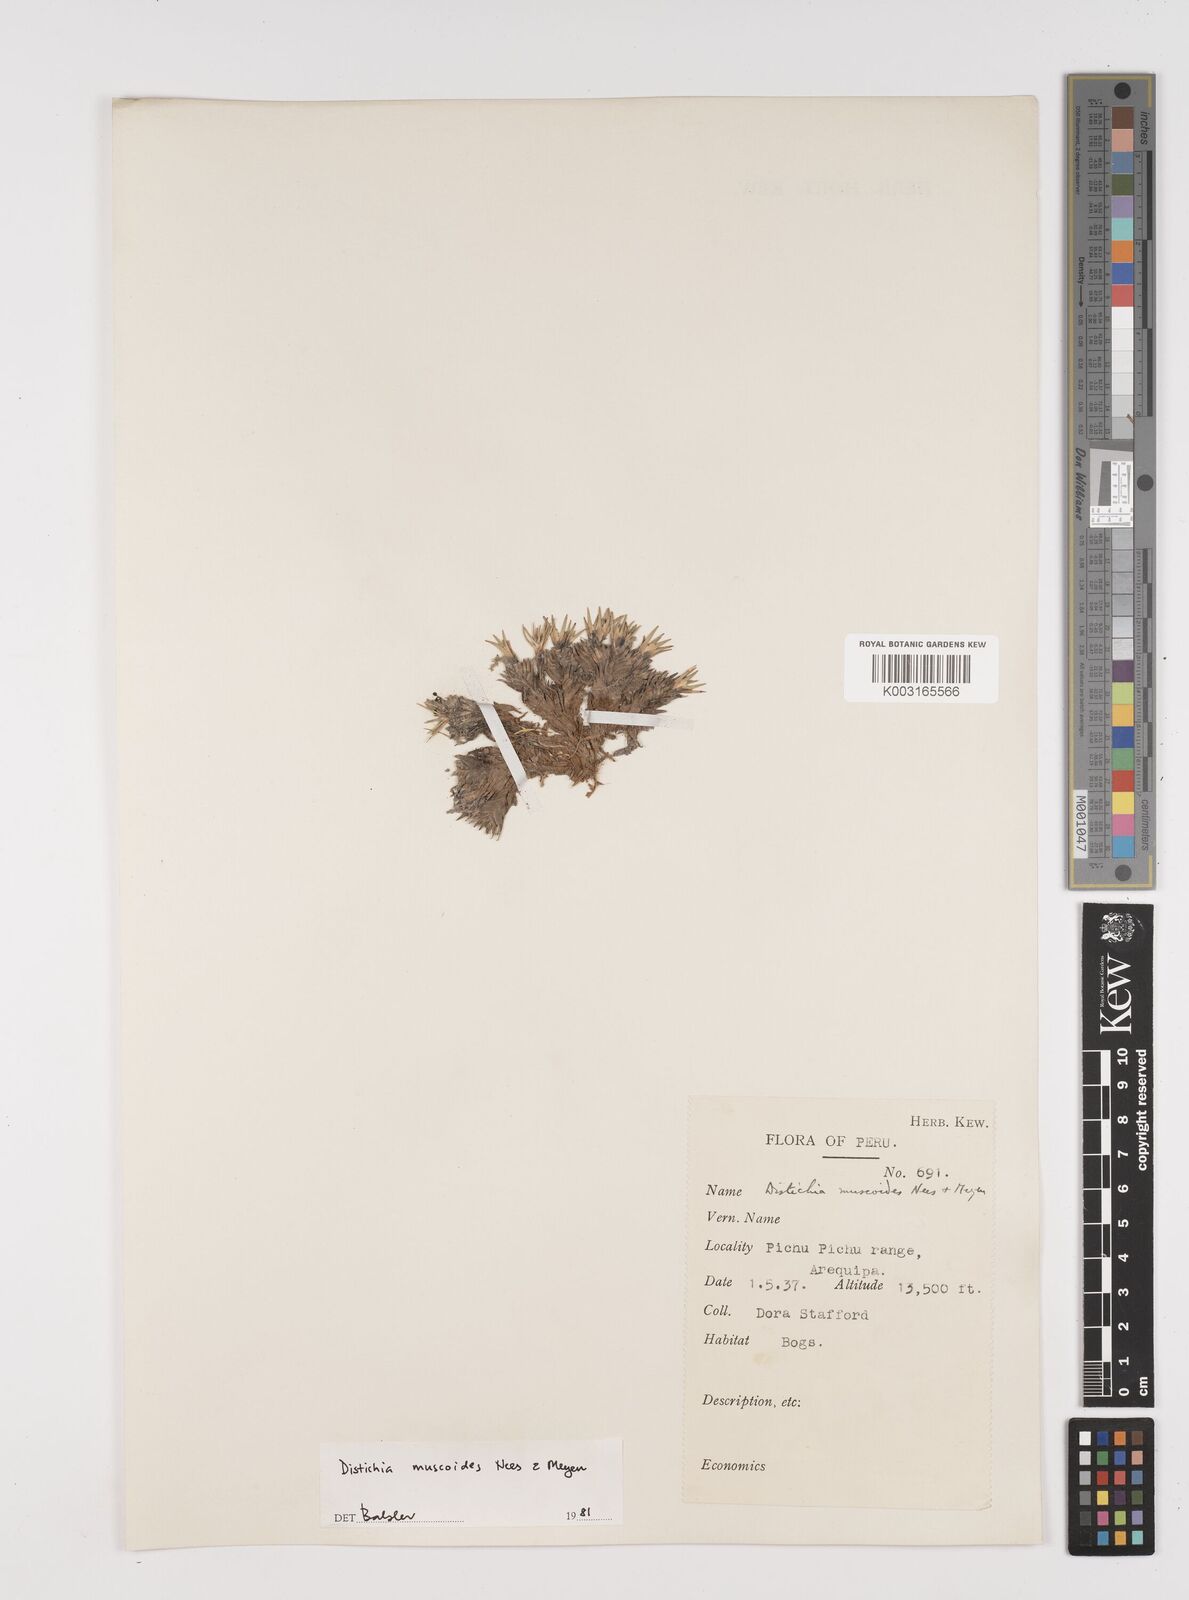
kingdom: Plantae
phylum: Tracheophyta
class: Liliopsida
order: Poales
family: Juncaceae
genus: Distichia
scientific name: Distichia muscoides
